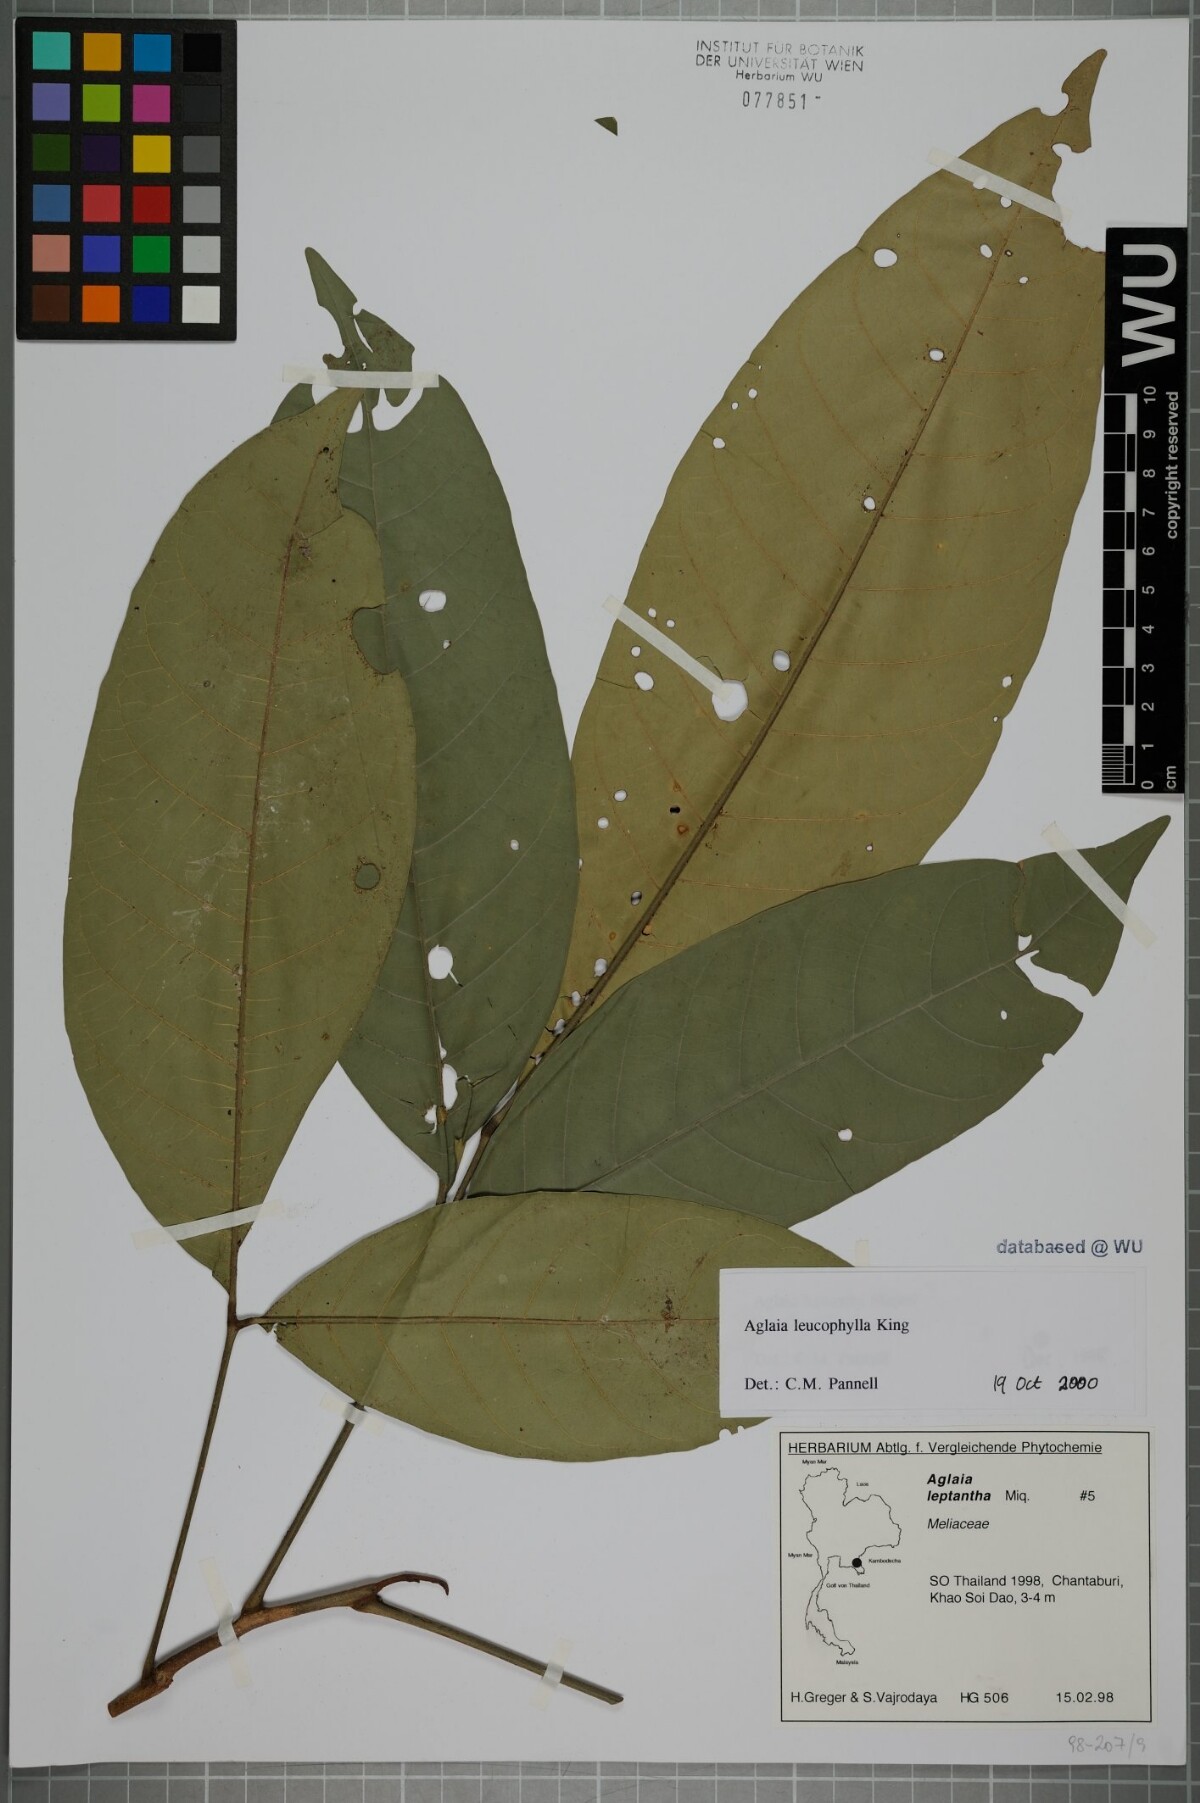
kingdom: Plantae
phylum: Tracheophyta
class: Magnoliopsida
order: Sapindales
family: Meliaceae
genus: Aglaia
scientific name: Aglaia leucophylla
